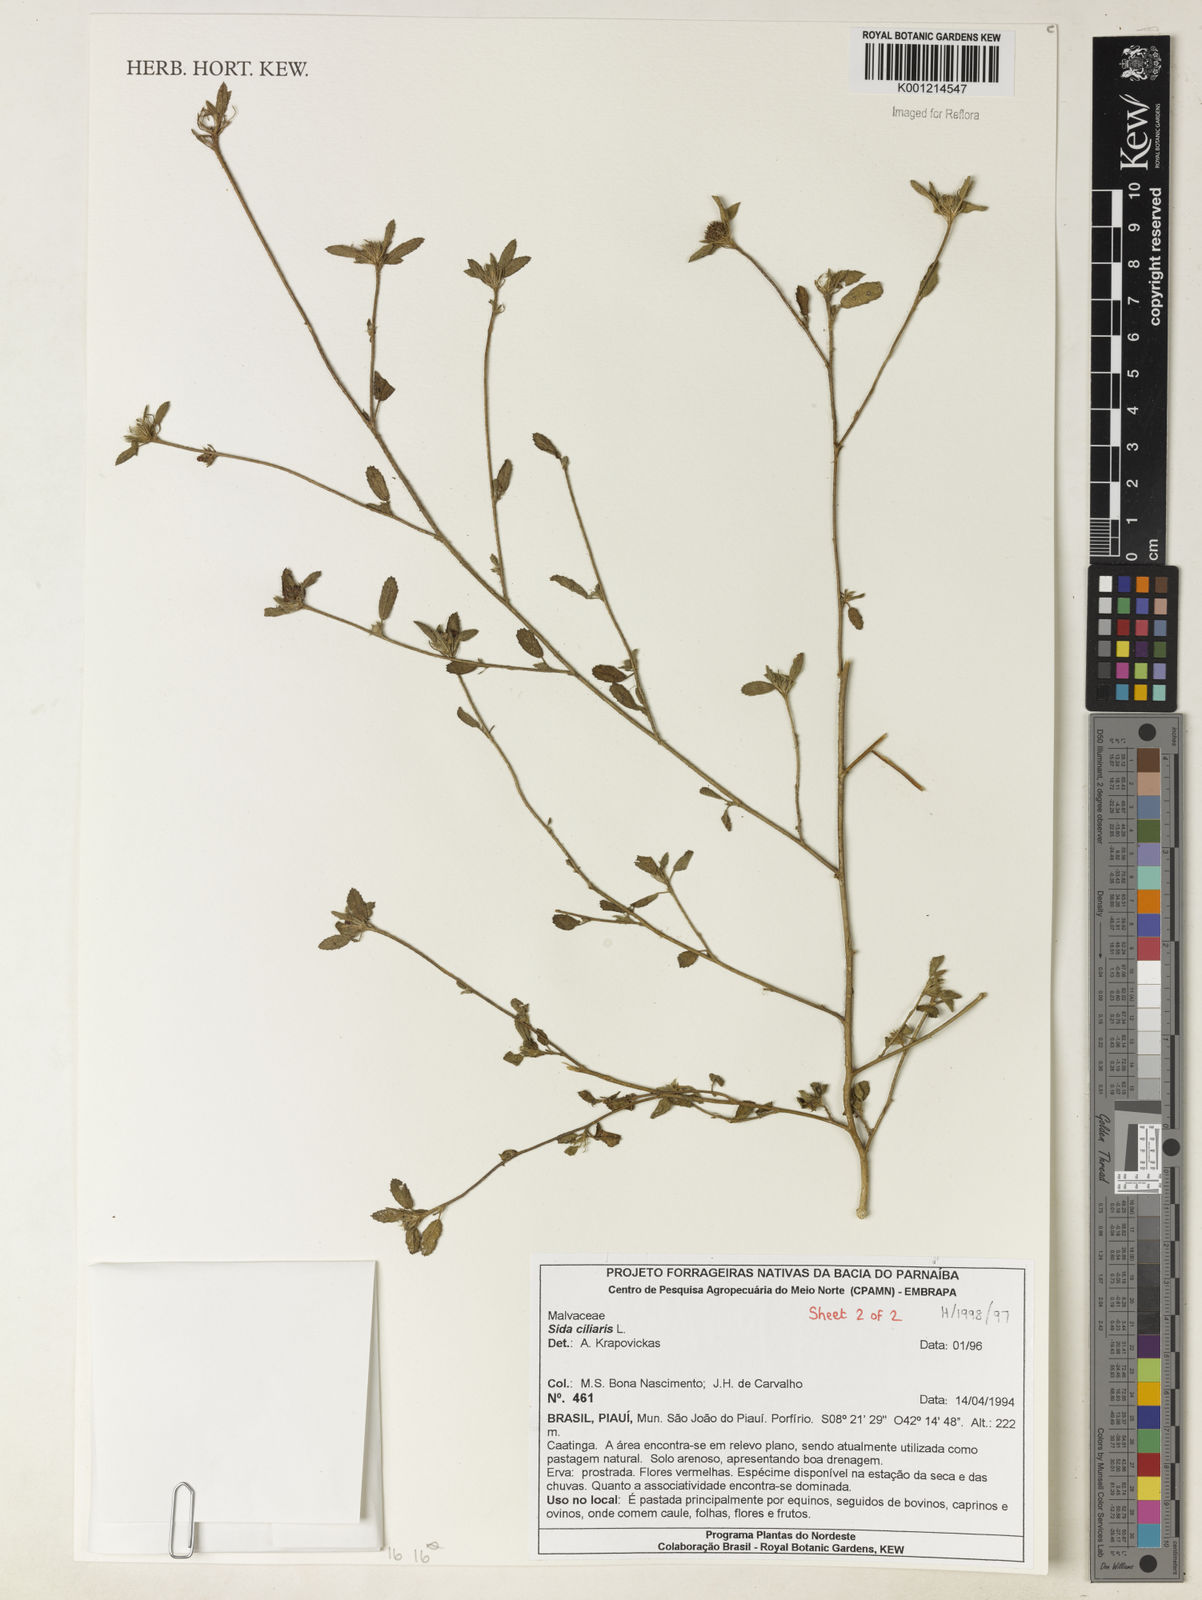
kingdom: Plantae
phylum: Tracheophyta
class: Magnoliopsida
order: Malvales
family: Malvaceae
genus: Sida
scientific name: Sida ciliaris
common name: Bracted fanpetals
